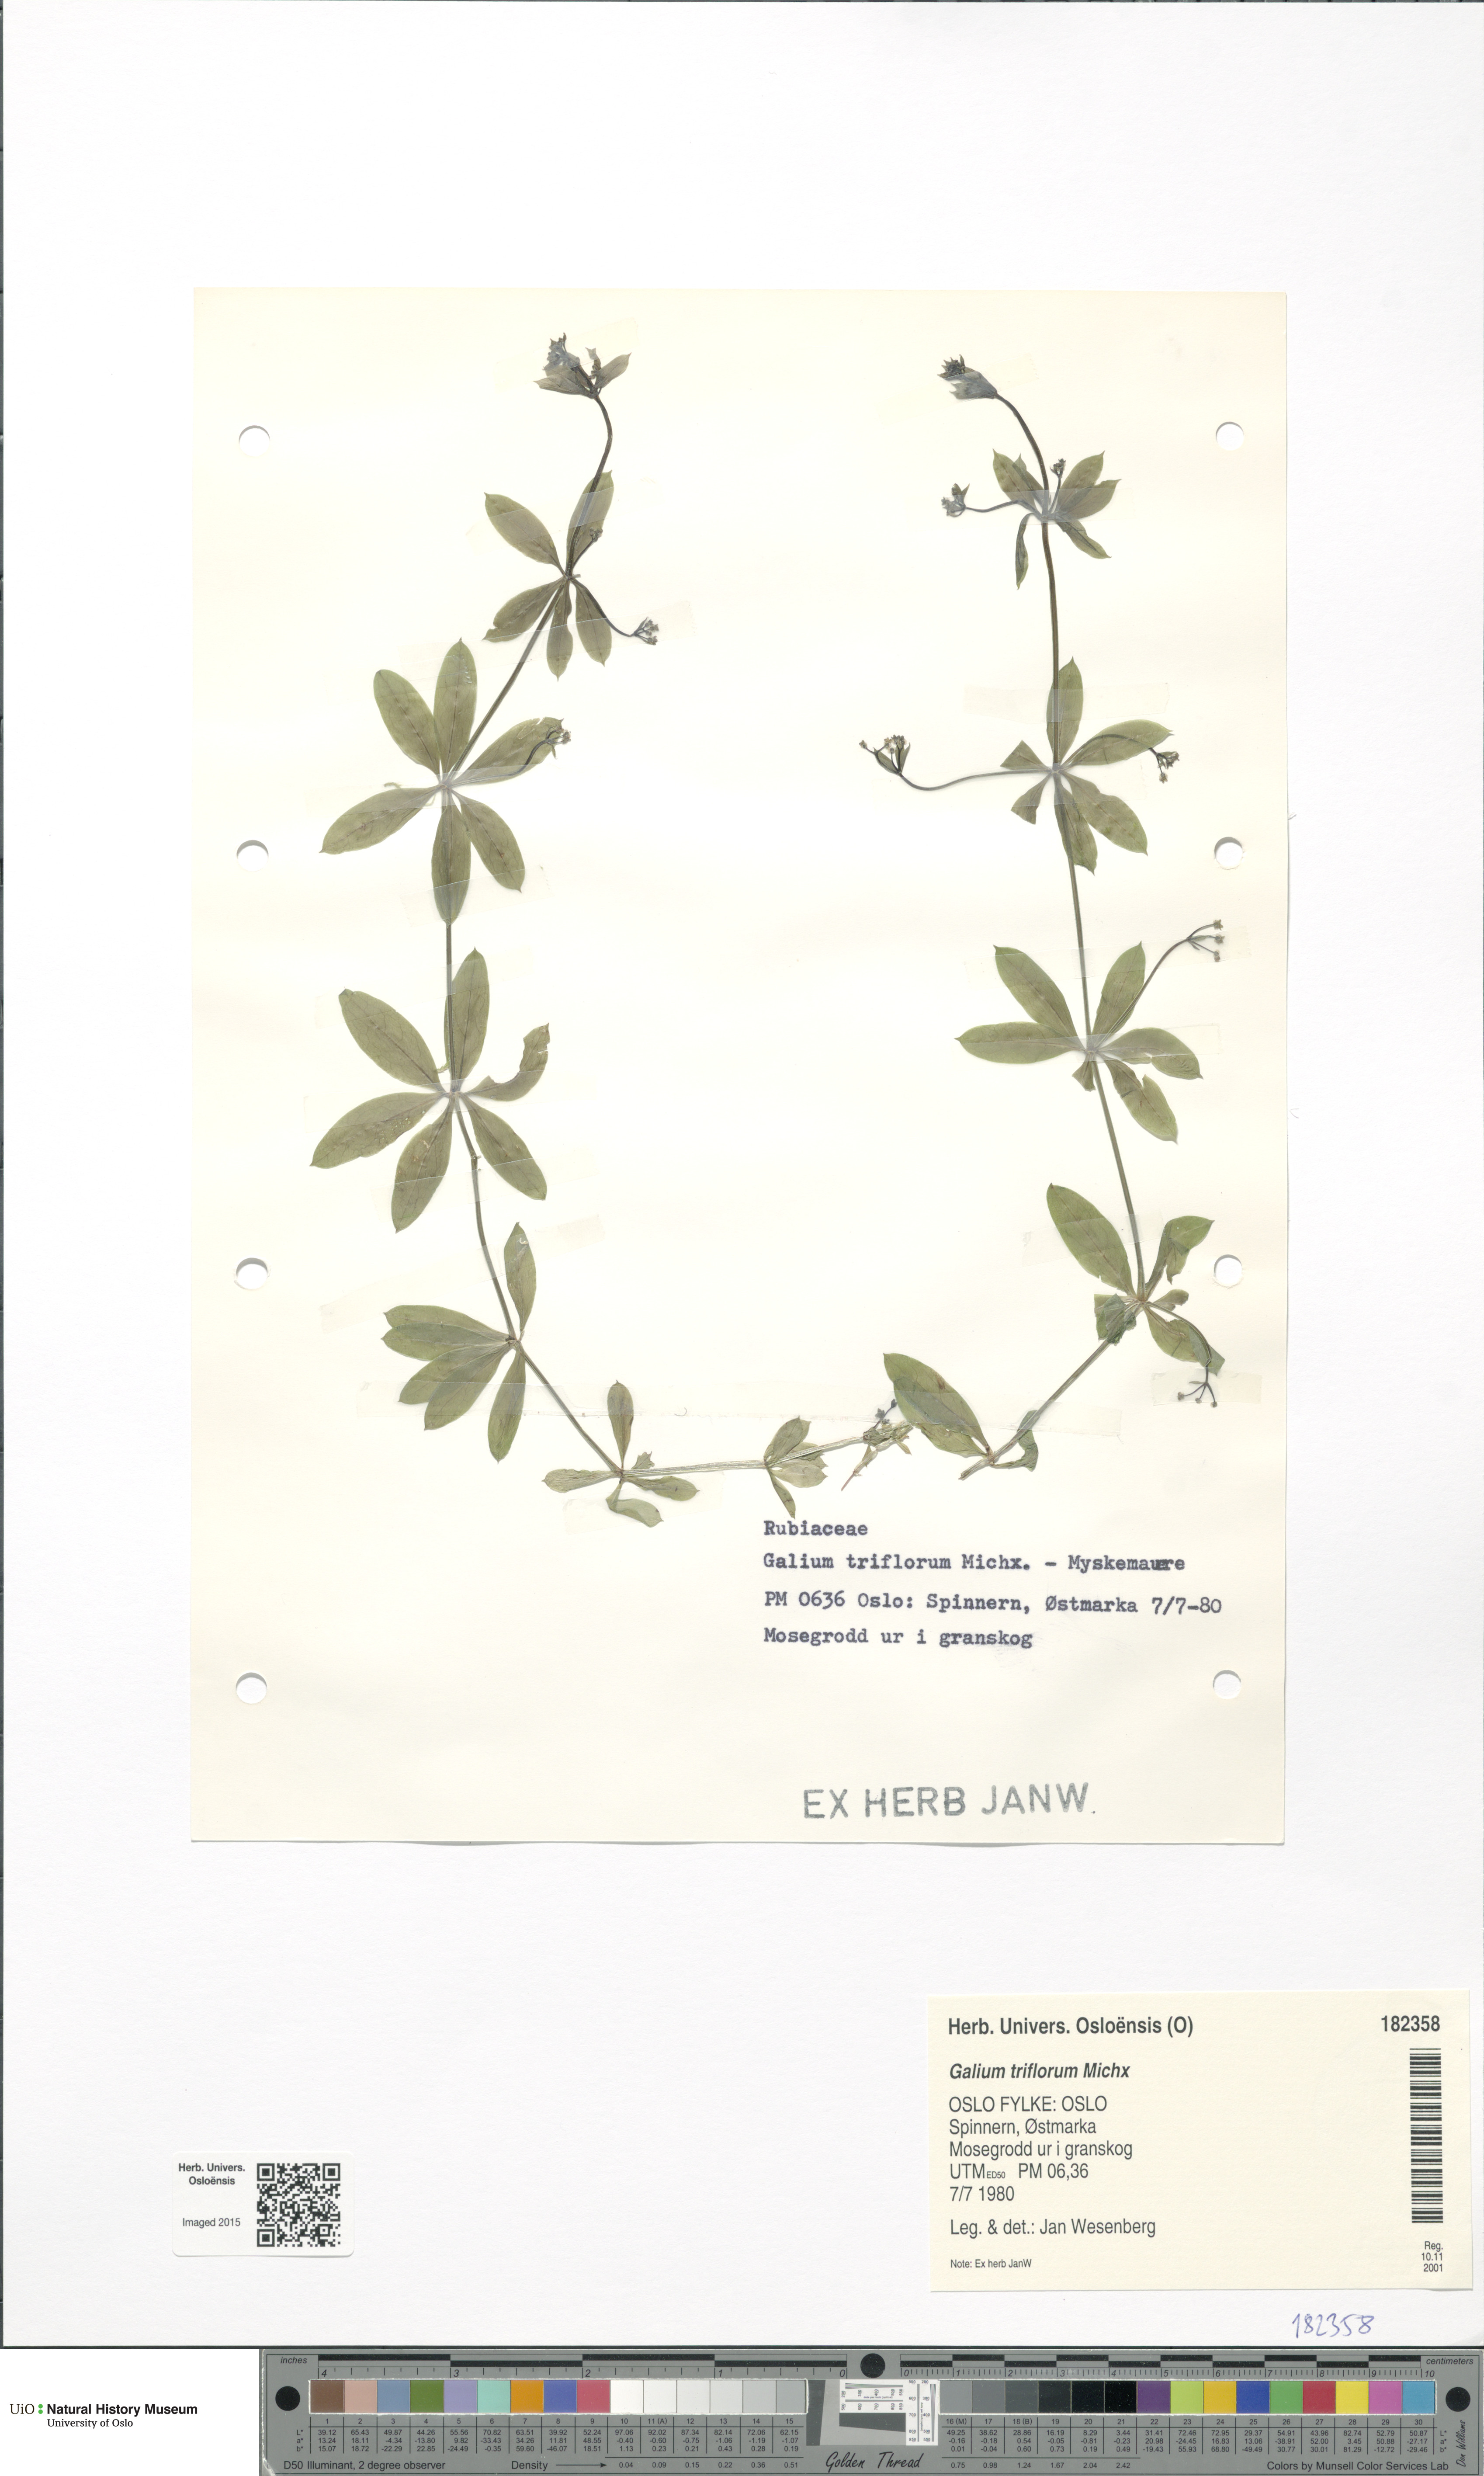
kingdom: Plantae
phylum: Tracheophyta
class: Magnoliopsida
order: Gentianales
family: Rubiaceae
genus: Galium
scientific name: Galium triflorum
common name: Fragrant bedstraw
